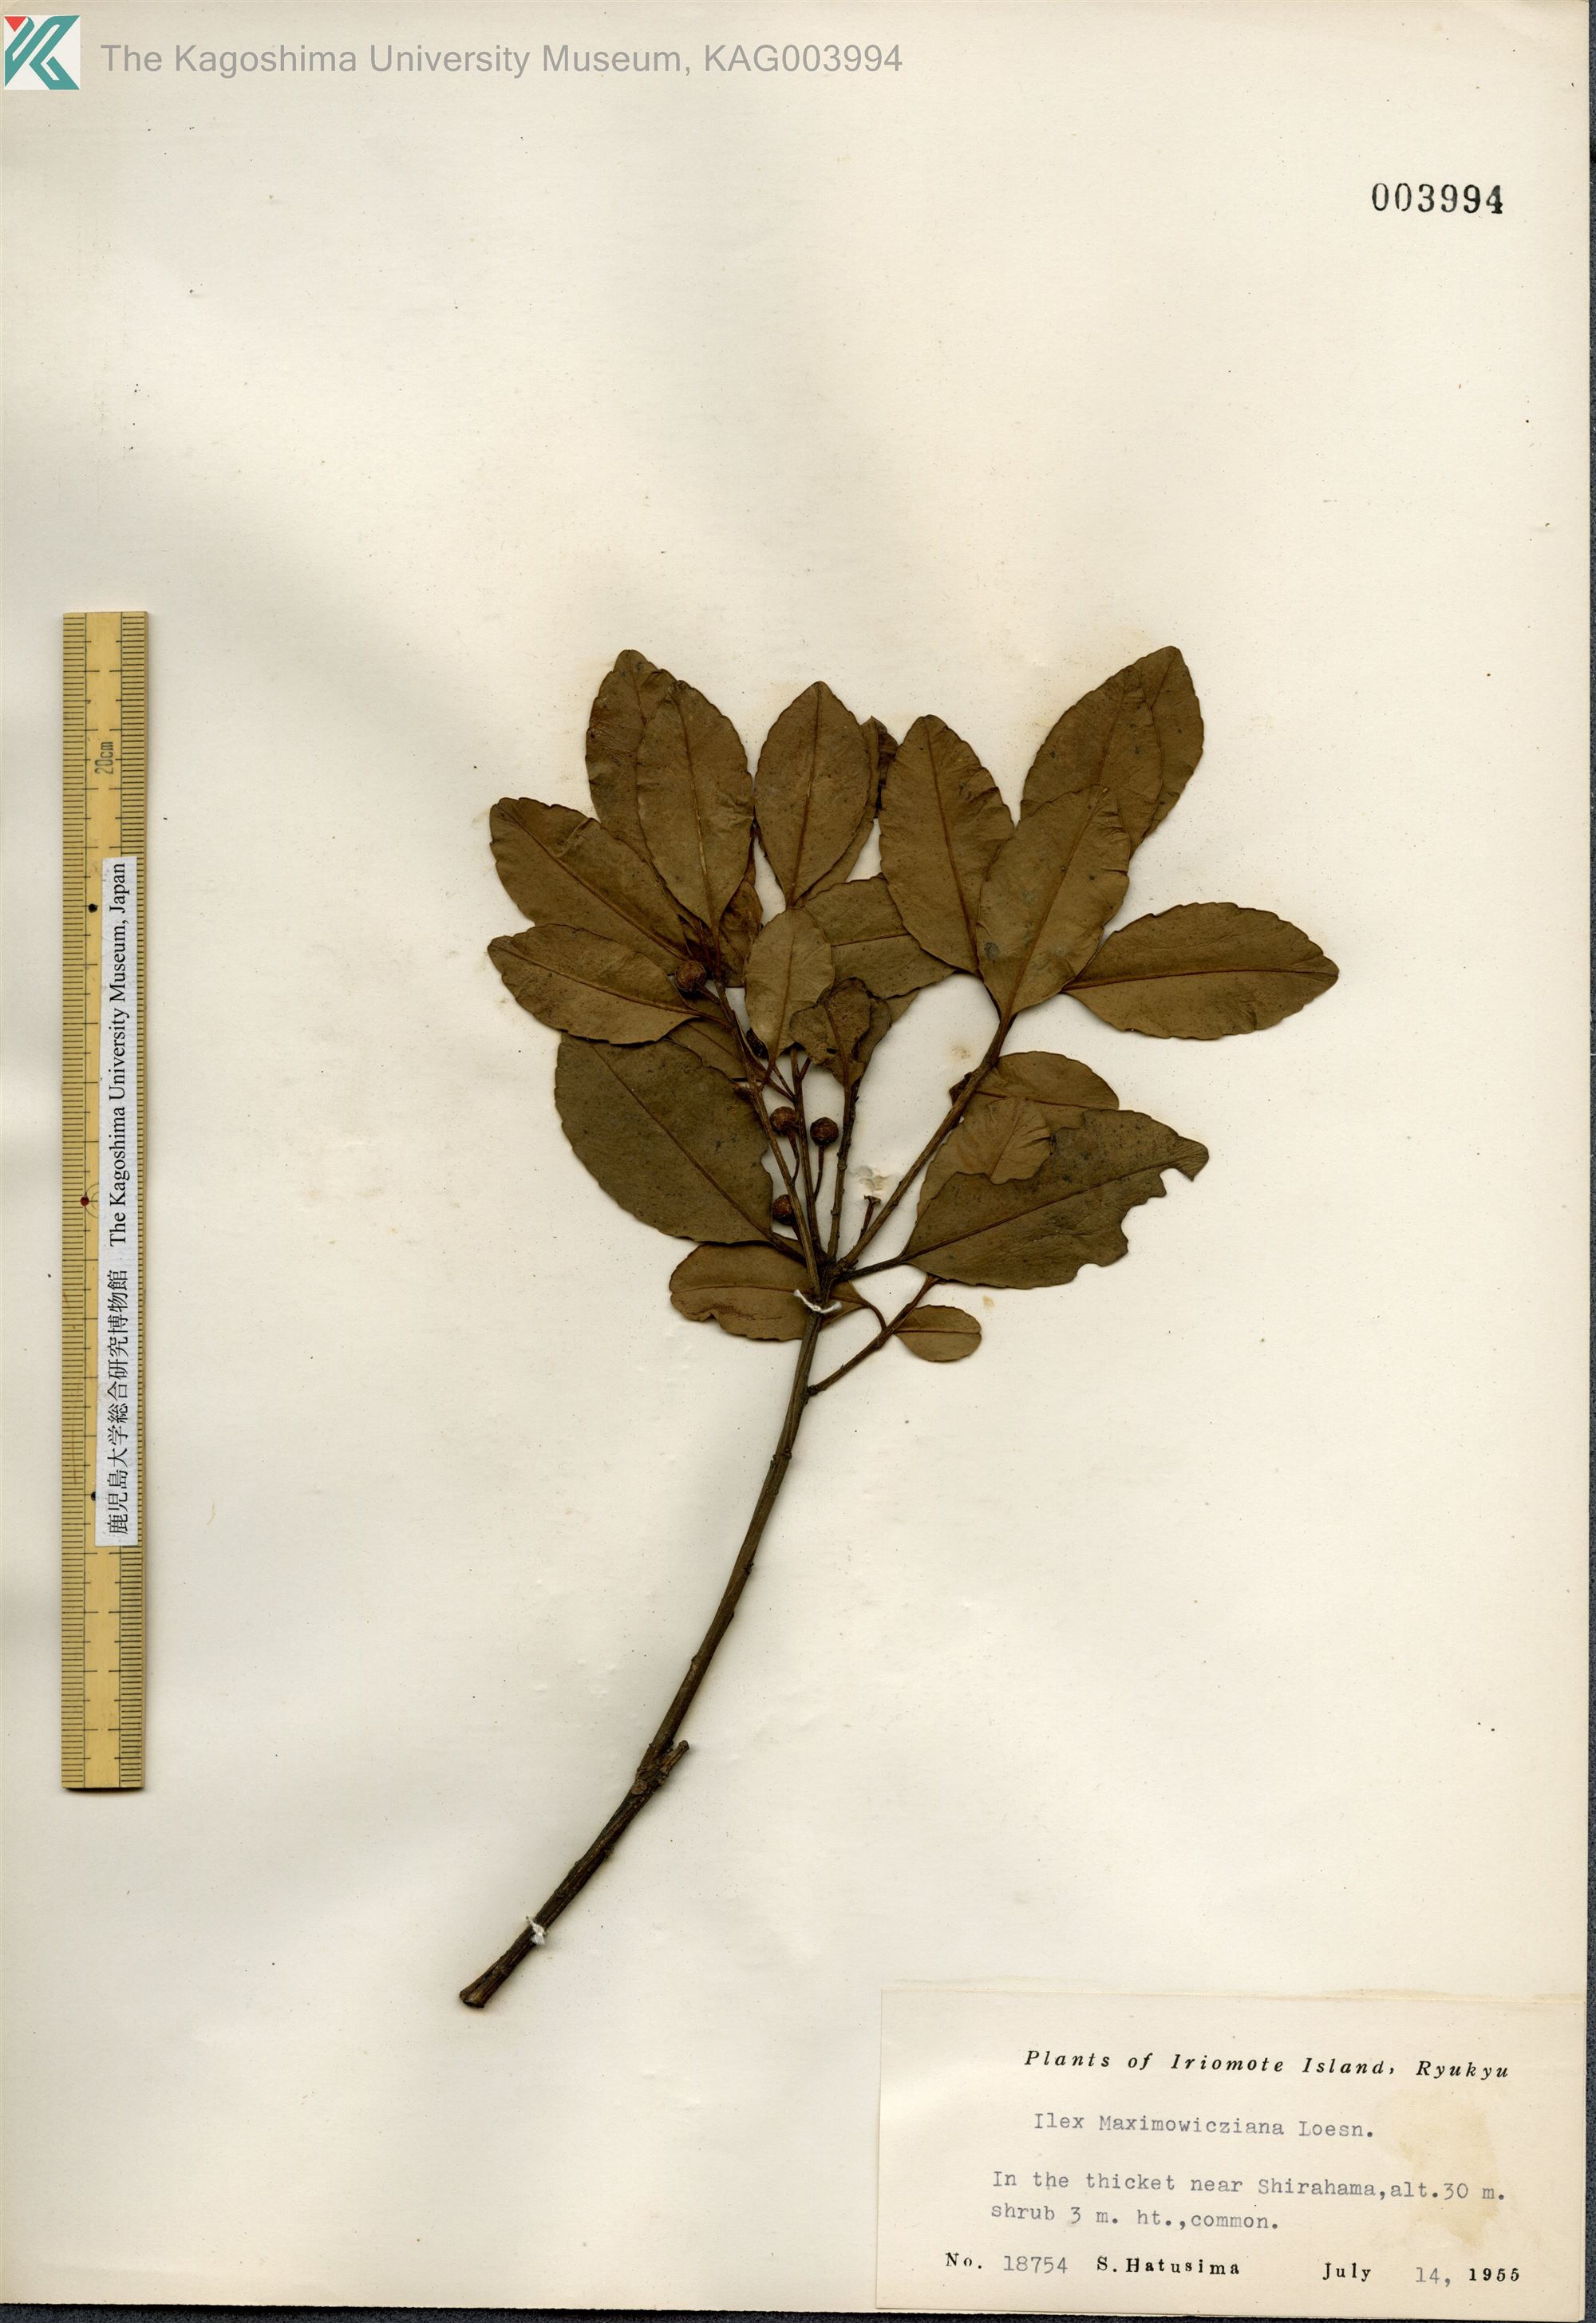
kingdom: Plantae
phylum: Tracheophyta
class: Magnoliopsida
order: Aquifoliales
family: Aquifoliaceae
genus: Ilex
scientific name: Ilex maximowicziana
